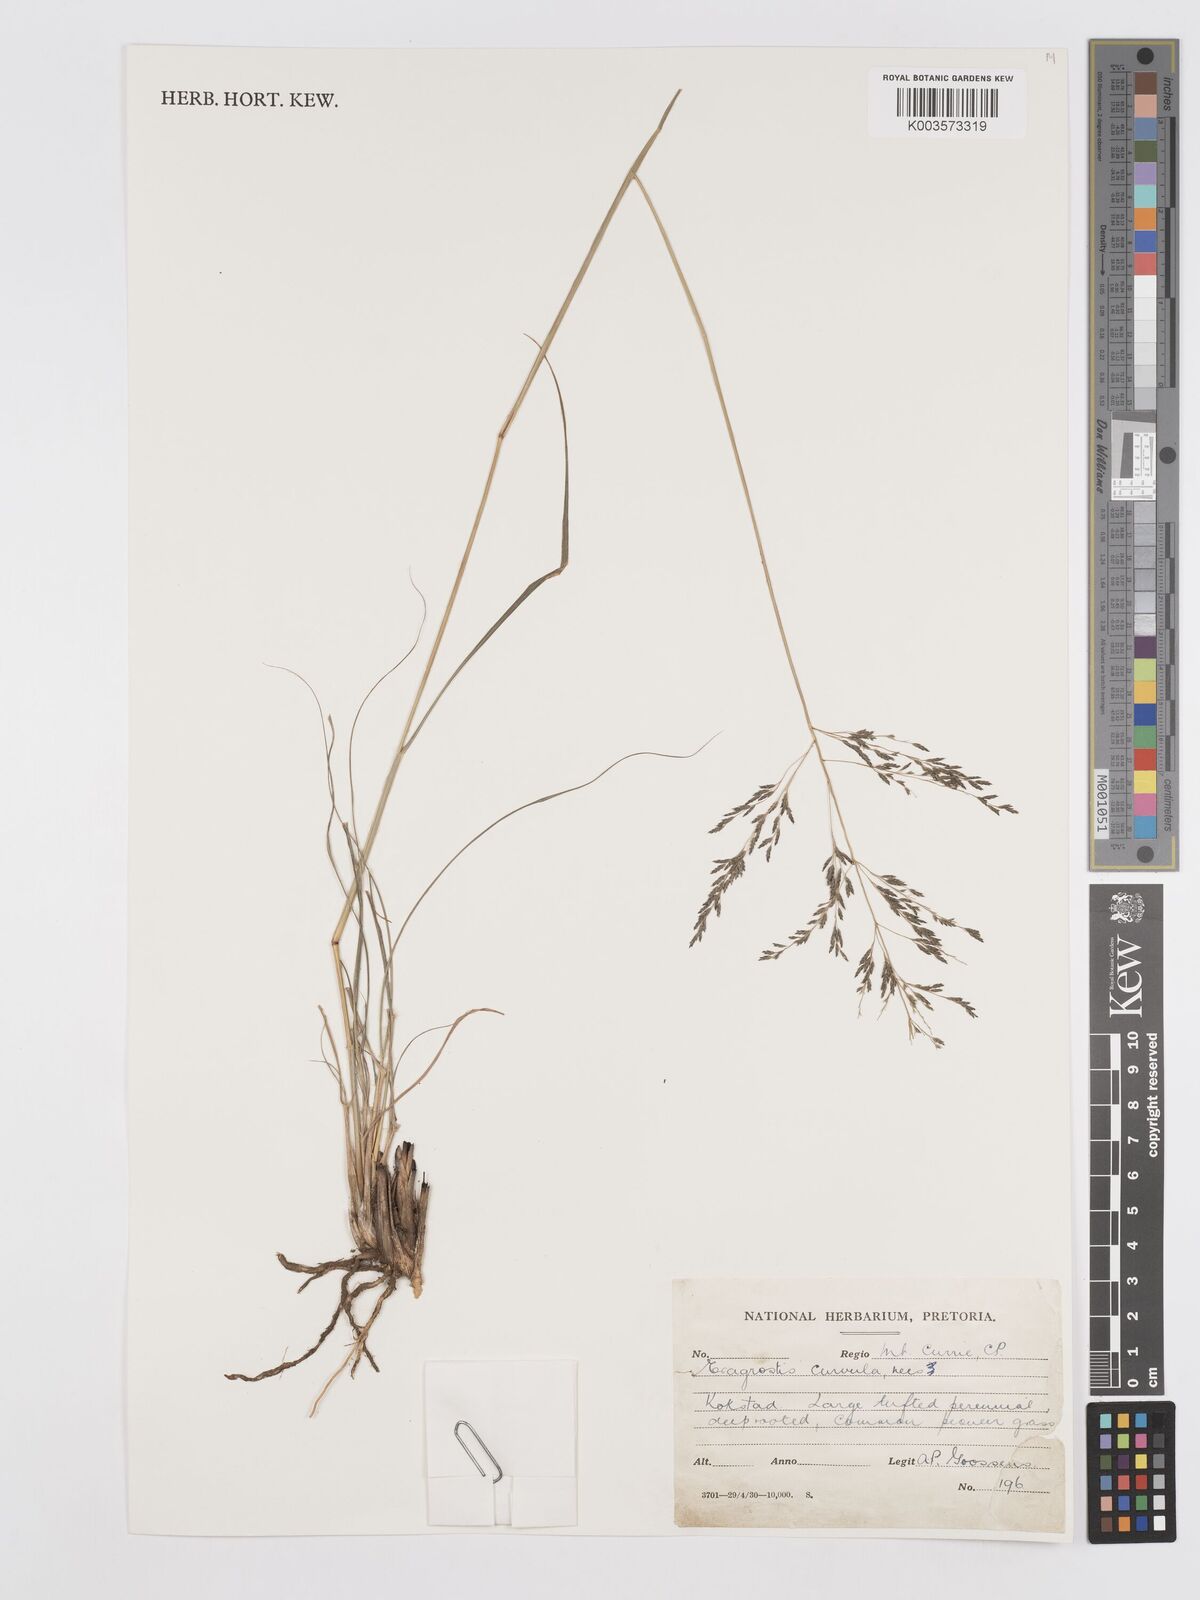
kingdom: Plantae
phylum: Tracheophyta
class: Liliopsida
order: Poales
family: Poaceae
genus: Eragrostis
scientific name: Eragrostis curvula
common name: African love-grass
